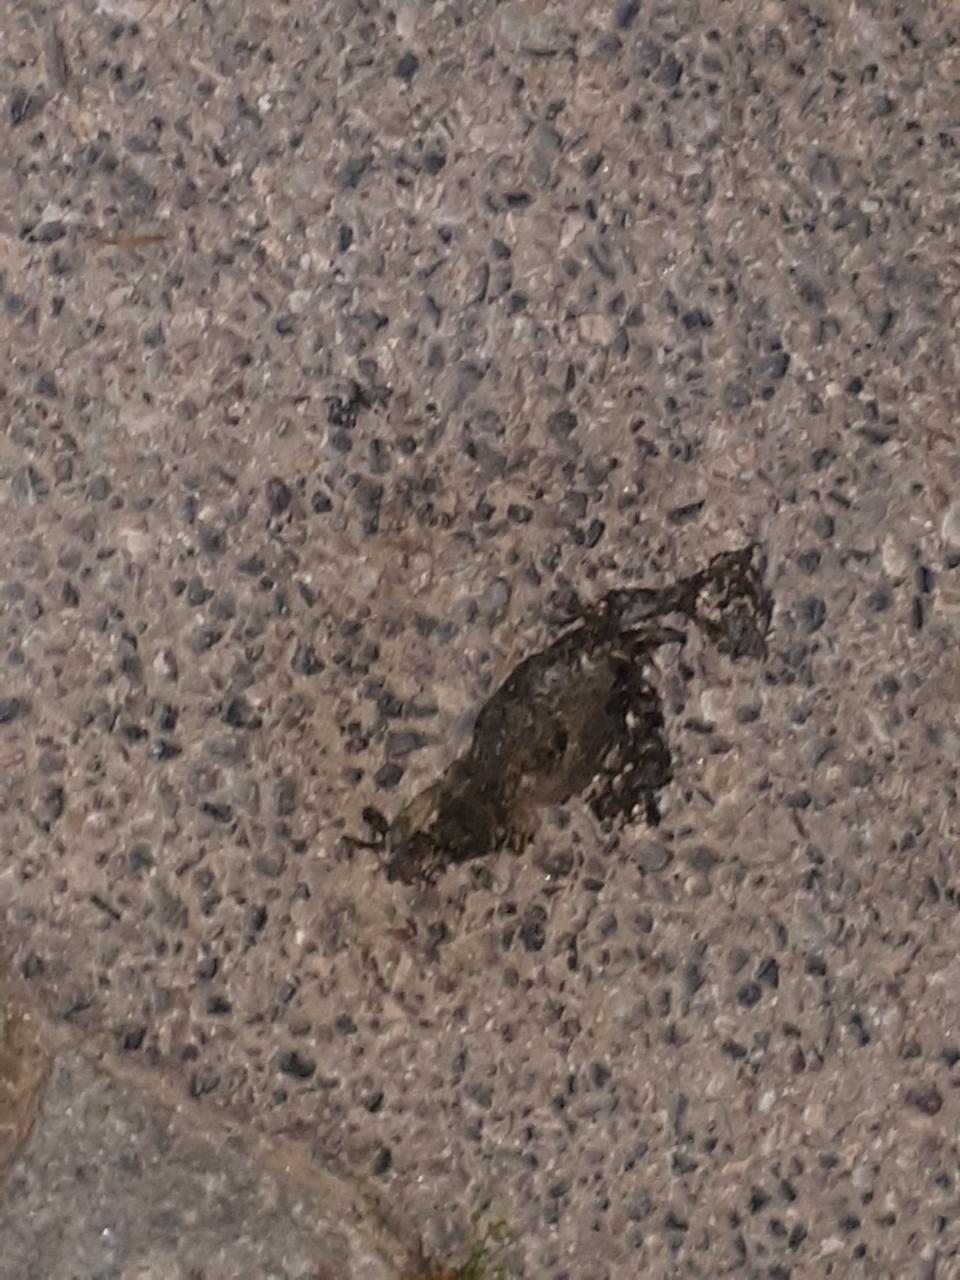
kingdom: Animalia
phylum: Chordata
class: Amphibia
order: Anura
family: Bufonidae
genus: Bufotes
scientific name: Bufotes viridis
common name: European green toad
